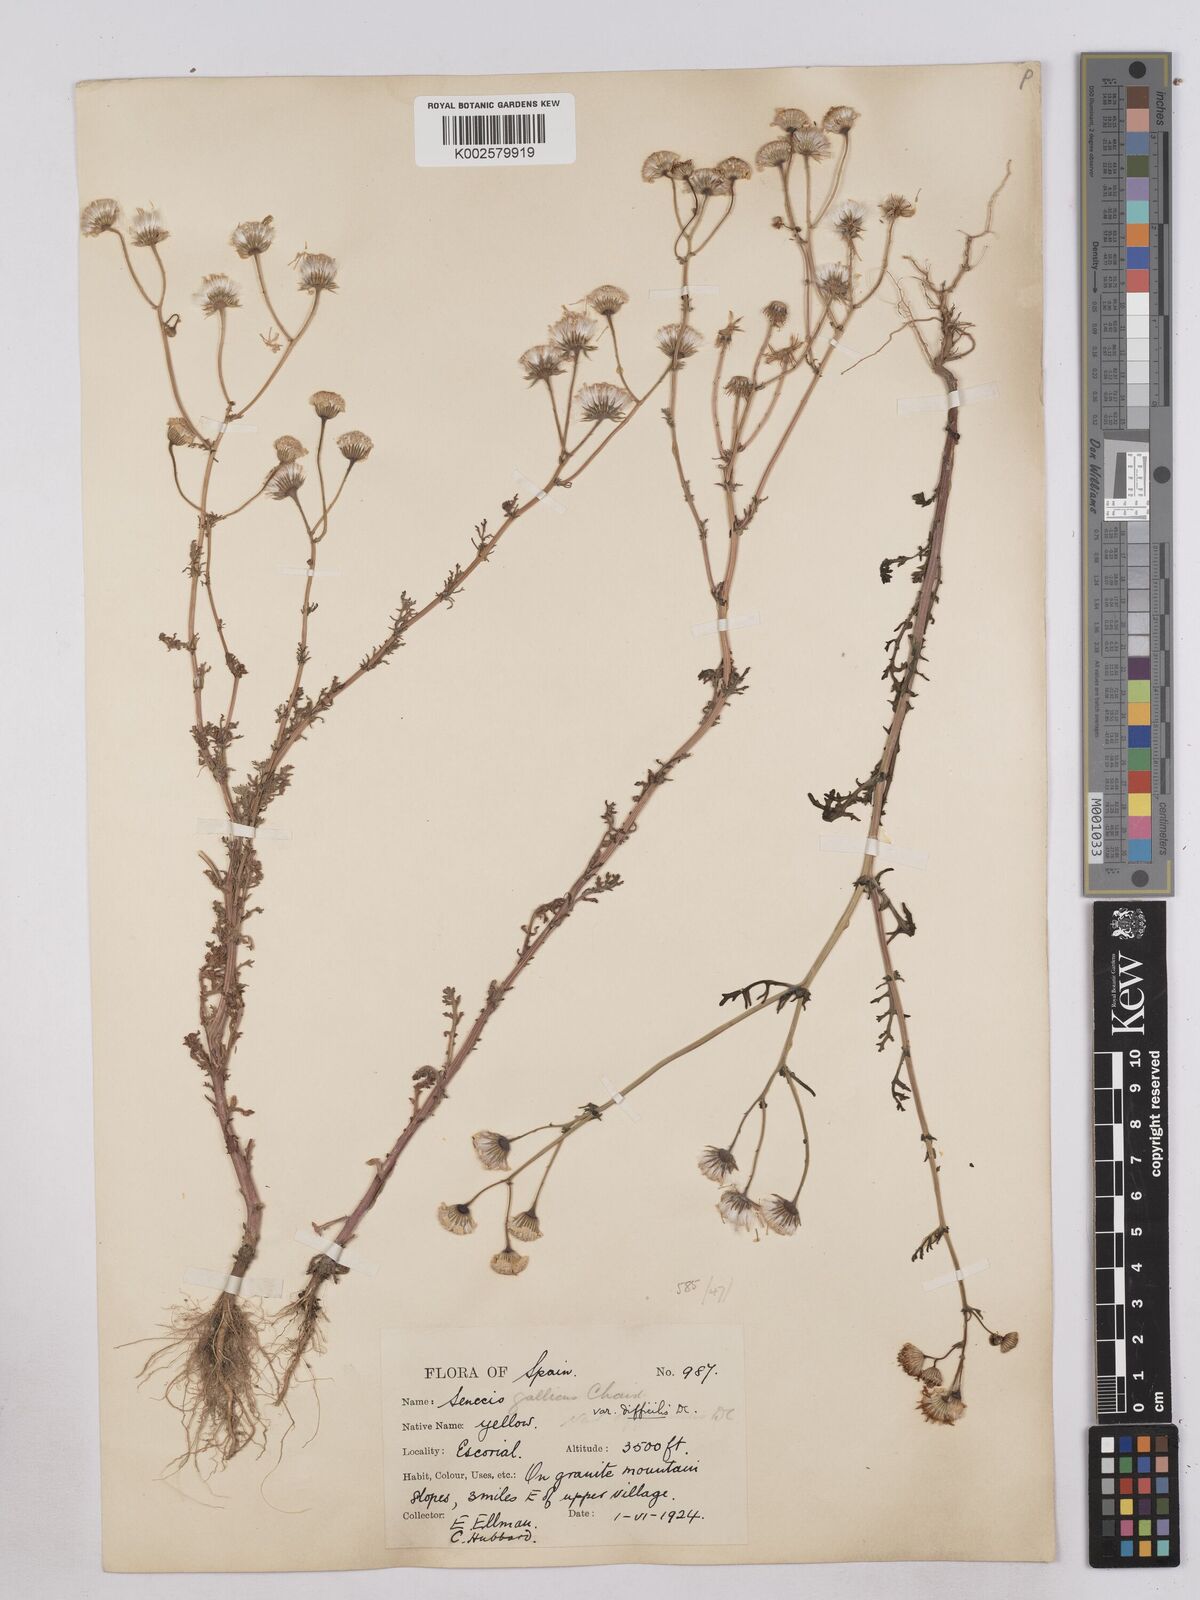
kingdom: Plantae
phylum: Tracheophyta
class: Magnoliopsida
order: Asterales
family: Asteraceae
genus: Senecio
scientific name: Senecio gallicus
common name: French groundsel
